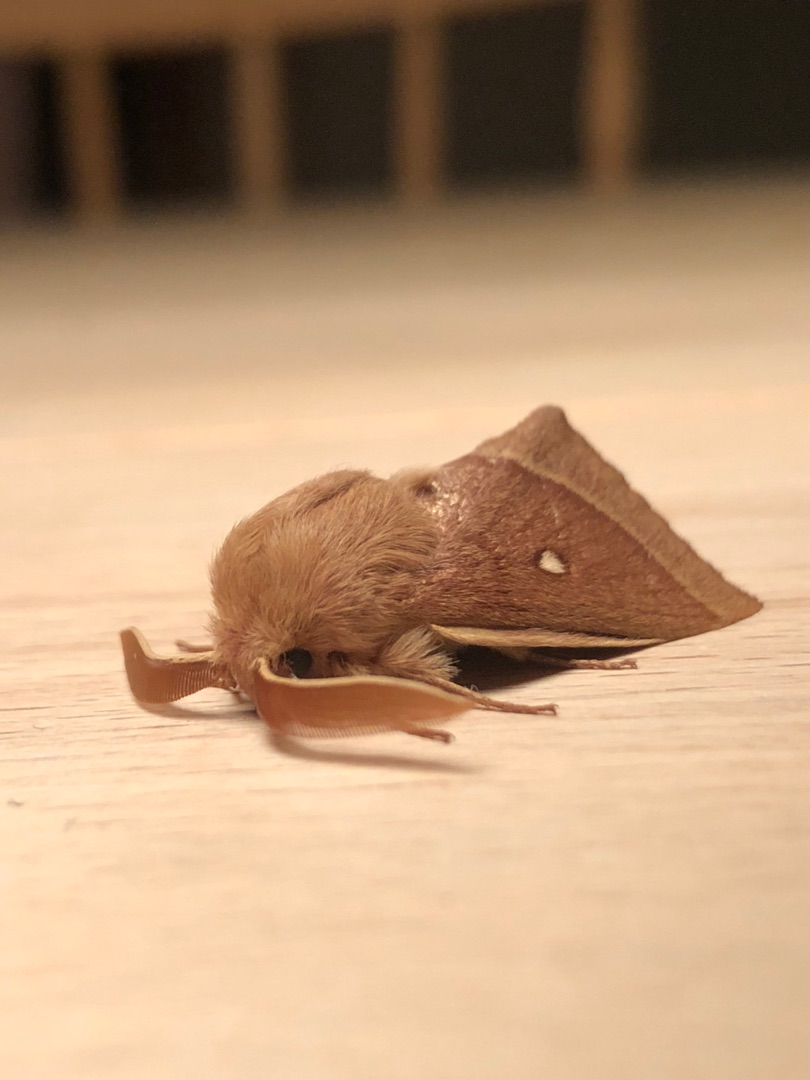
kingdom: Animalia
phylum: Arthropoda
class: Insecta
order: Lepidoptera
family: Lasiocampidae
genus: Lasiocampa
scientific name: Lasiocampa trifolii
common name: Kløverspinder
